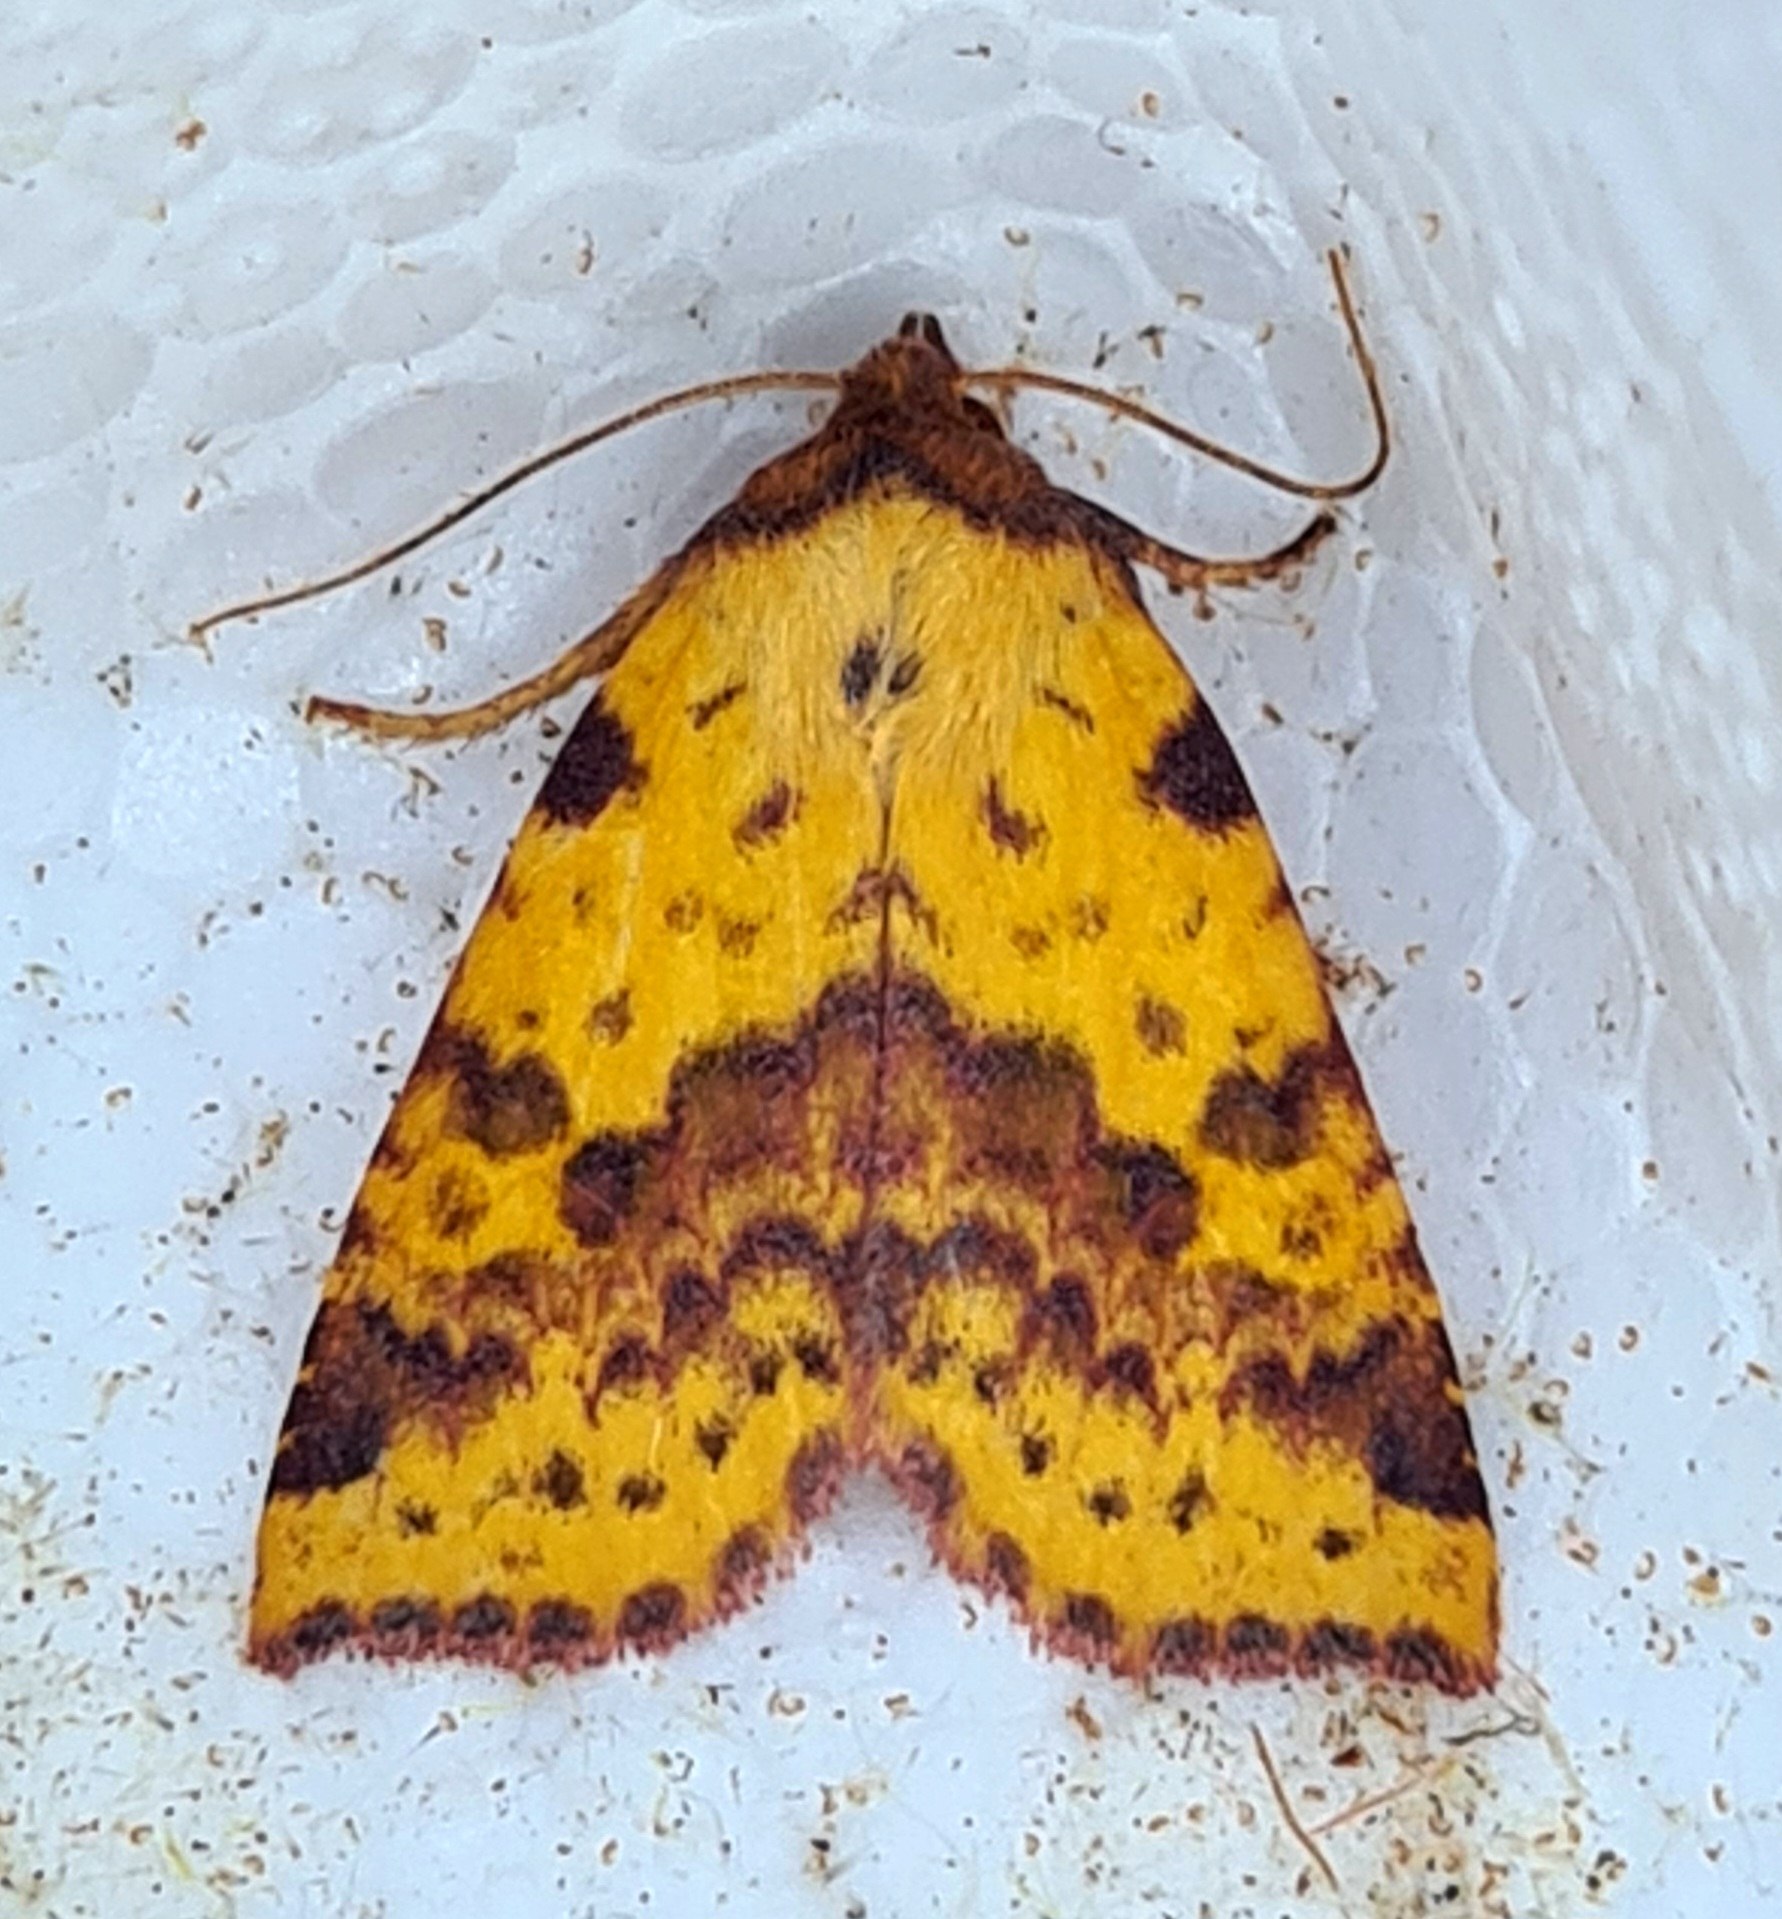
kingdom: Animalia
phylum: Arthropoda
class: Insecta
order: Lepidoptera
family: Noctuidae
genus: Xanthia
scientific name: Xanthia togata
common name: Toga-septemberugle
